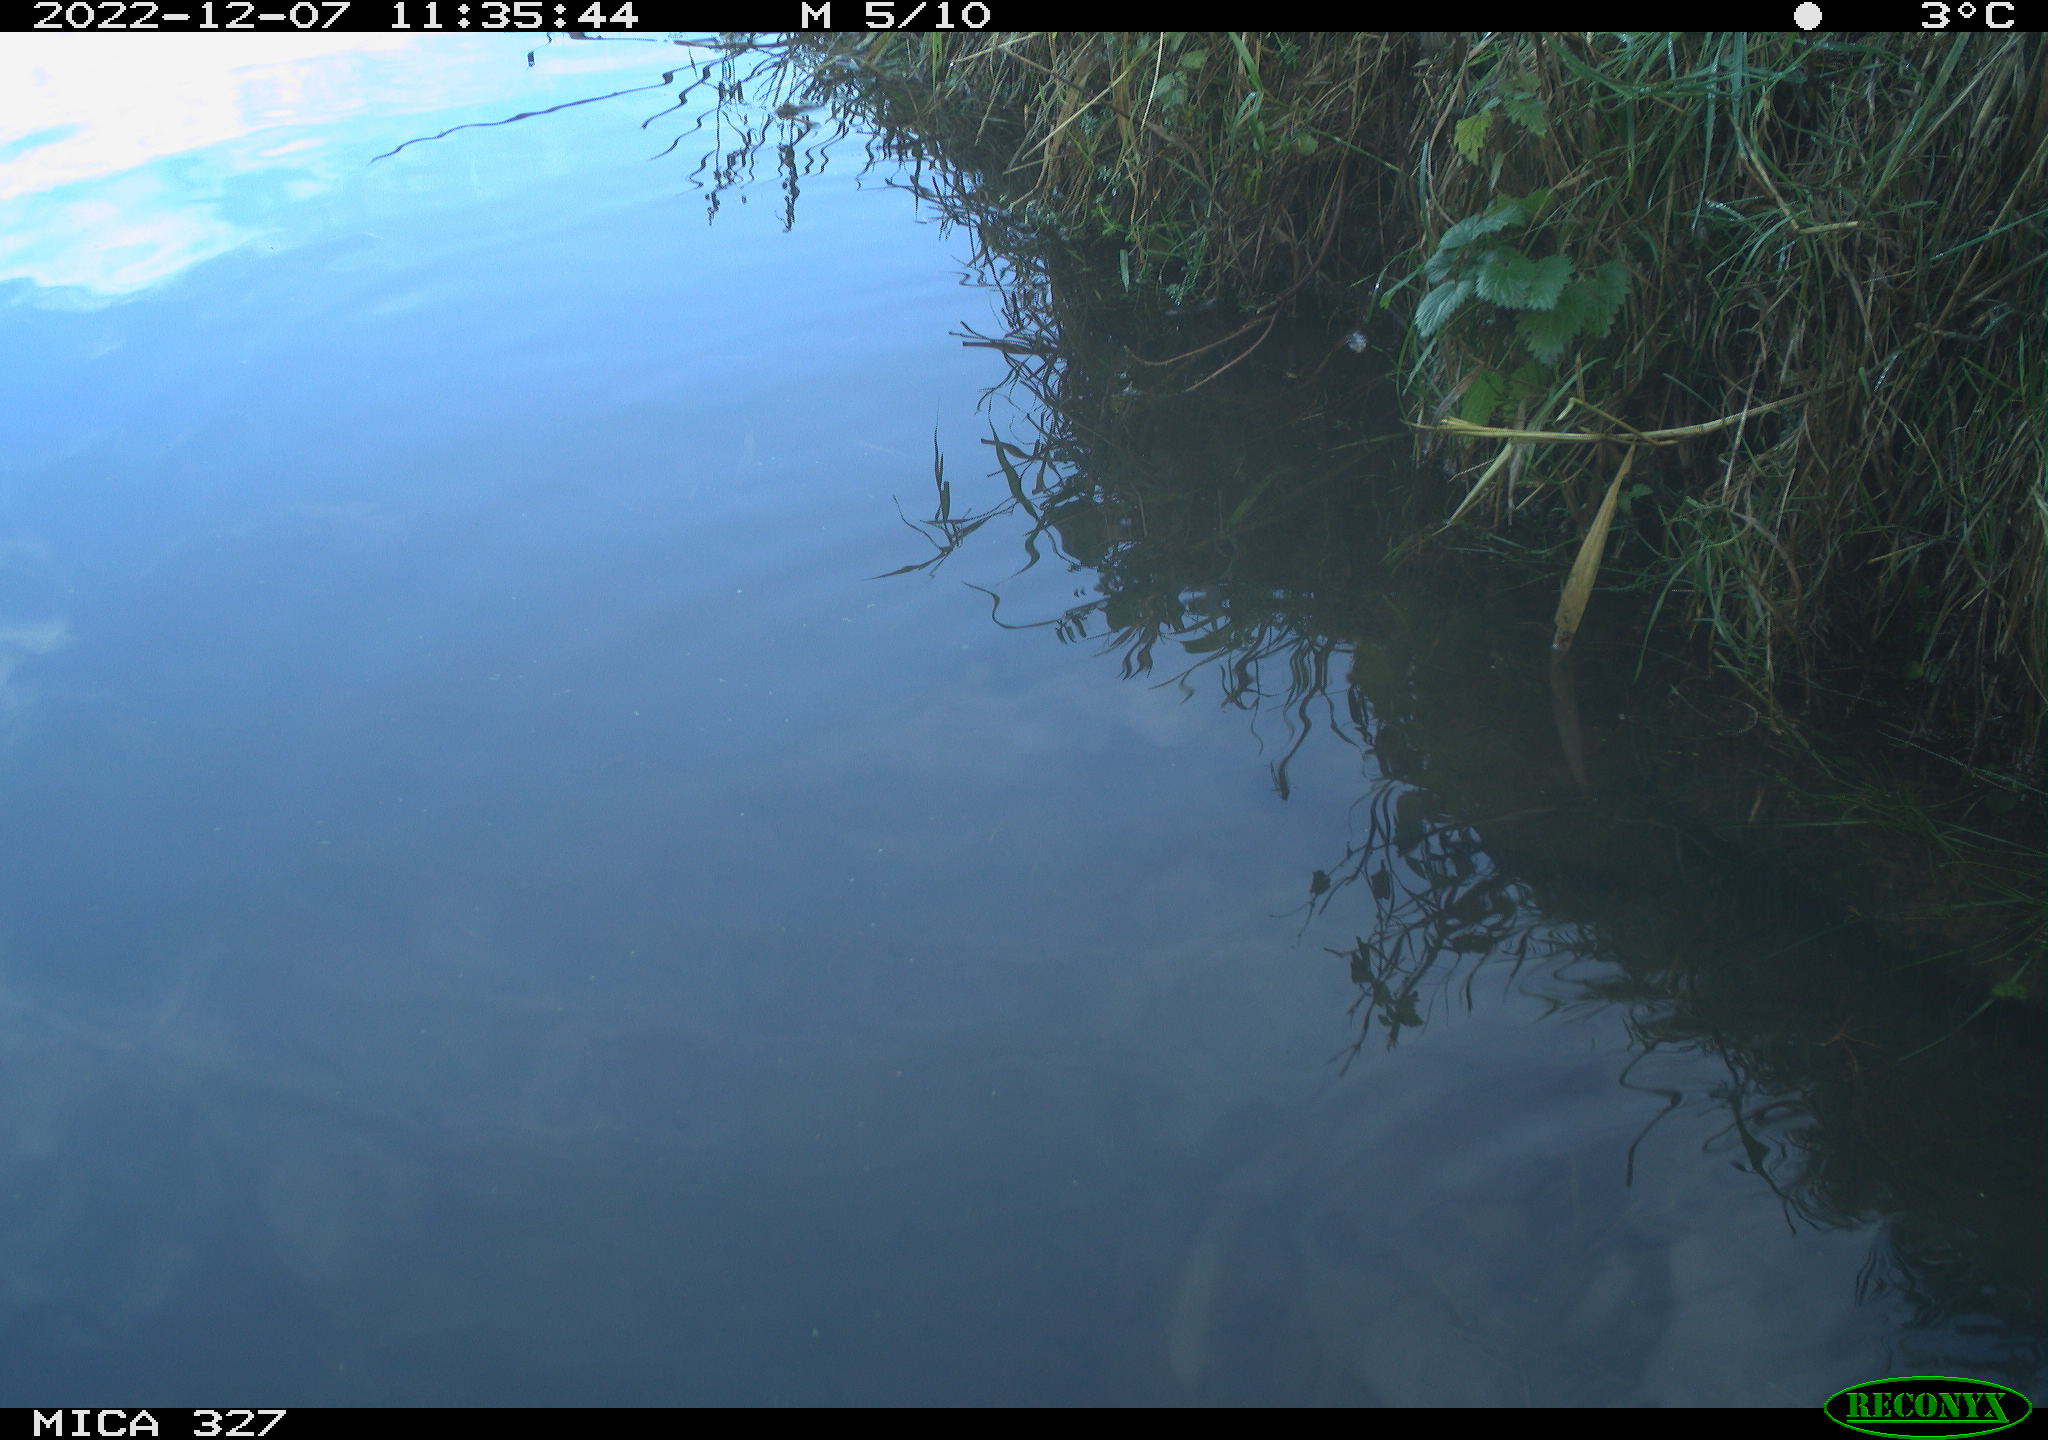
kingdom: Animalia
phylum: Chordata
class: Aves
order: Gruiformes
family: Rallidae
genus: Gallinula
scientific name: Gallinula chloropus
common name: Common moorhen
